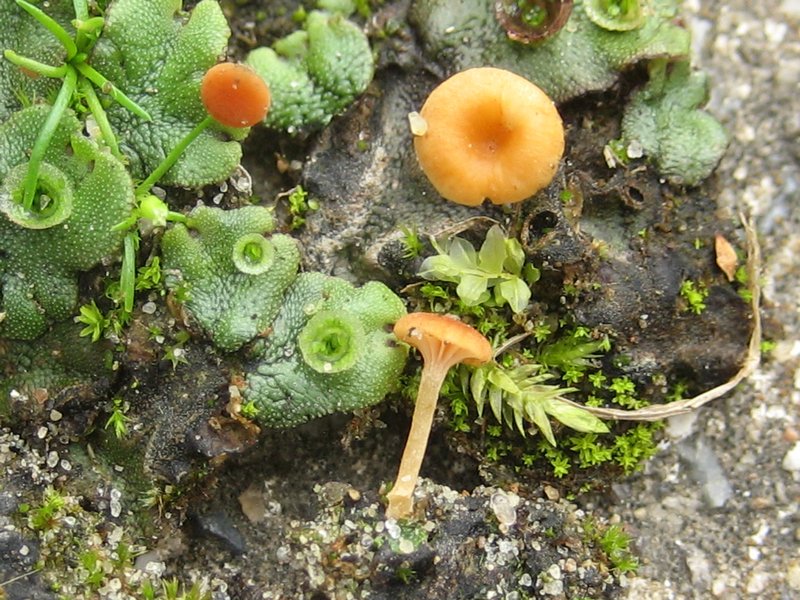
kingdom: Fungi
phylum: Basidiomycota
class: Agaricomycetes
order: Hymenochaetales
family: Rickenellaceae
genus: Loreleia
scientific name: Loreleia marchantiae
